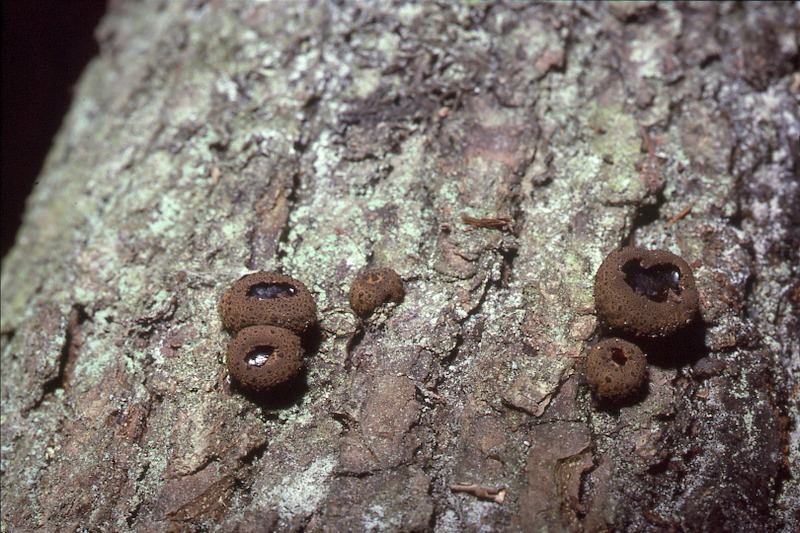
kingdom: Fungi
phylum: Ascomycota
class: Leotiomycetes
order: Phacidiales
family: Phacidiaceae
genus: Bulgaria
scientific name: Bulgaria inquinans
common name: Black bulgar
